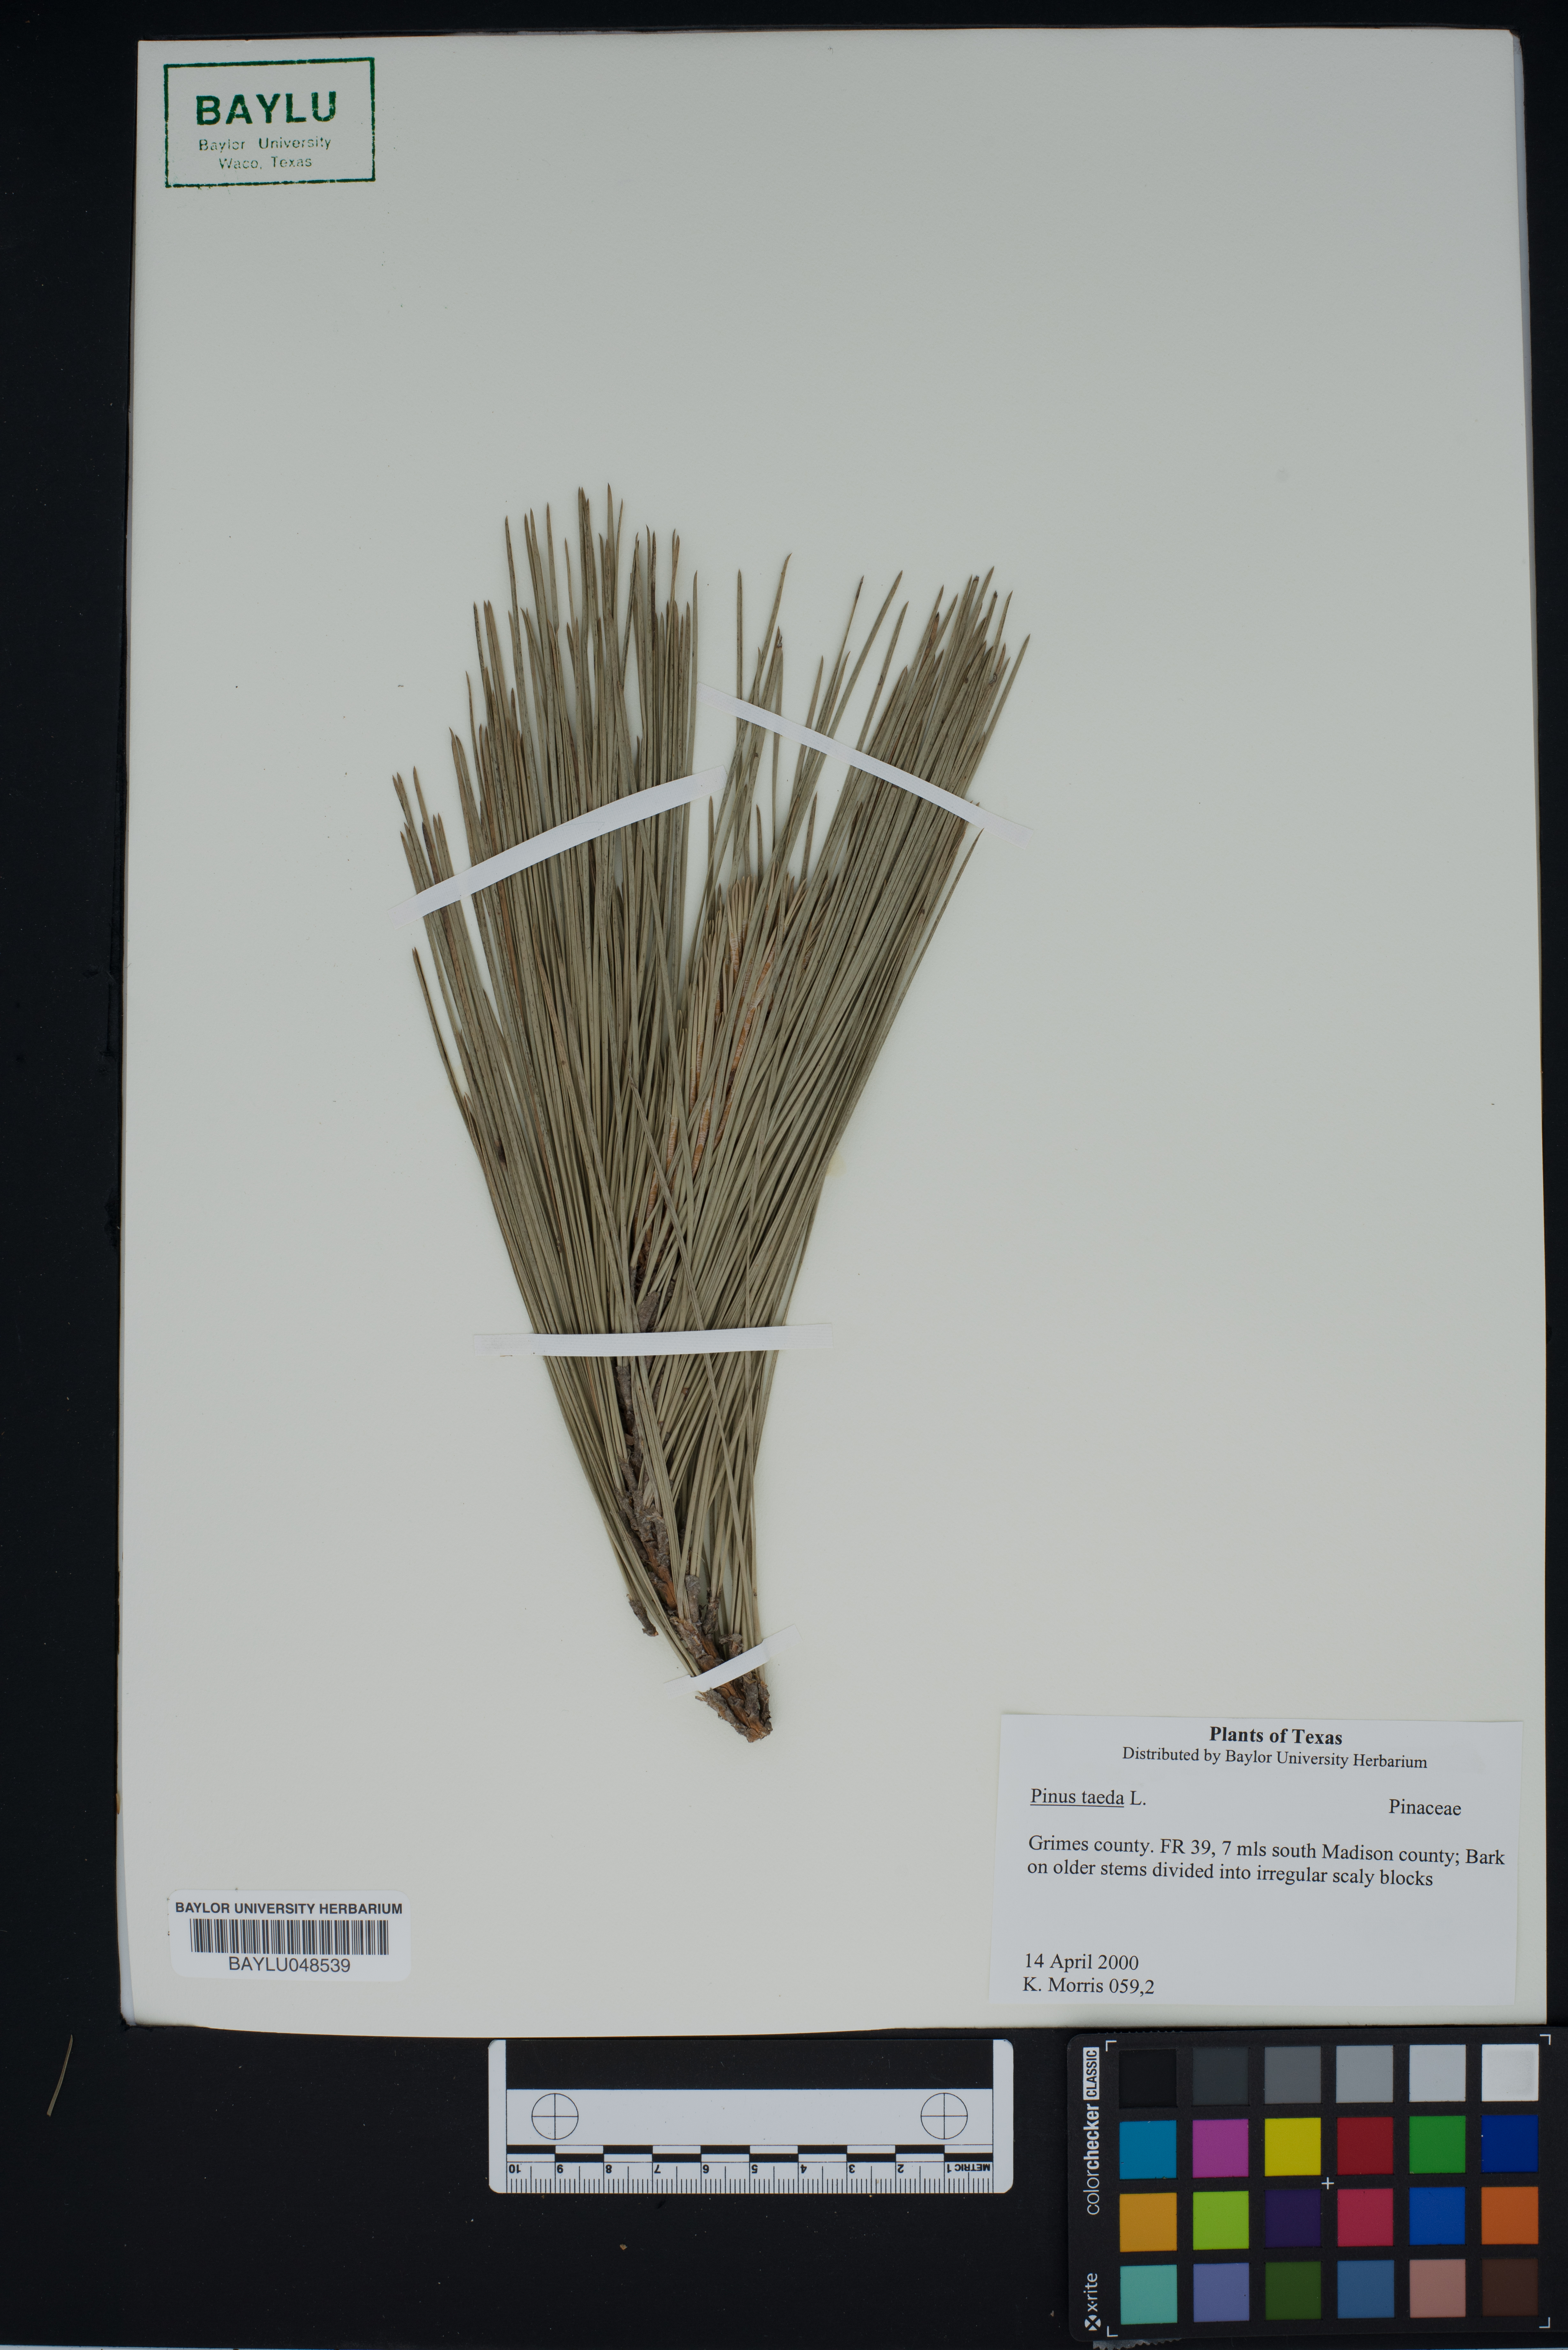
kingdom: Plantae
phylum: Tracheophyta
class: Pinopsida
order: Pinales
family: Pinaceae
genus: Pinus
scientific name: Pinus taeda
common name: Loblolly pine
